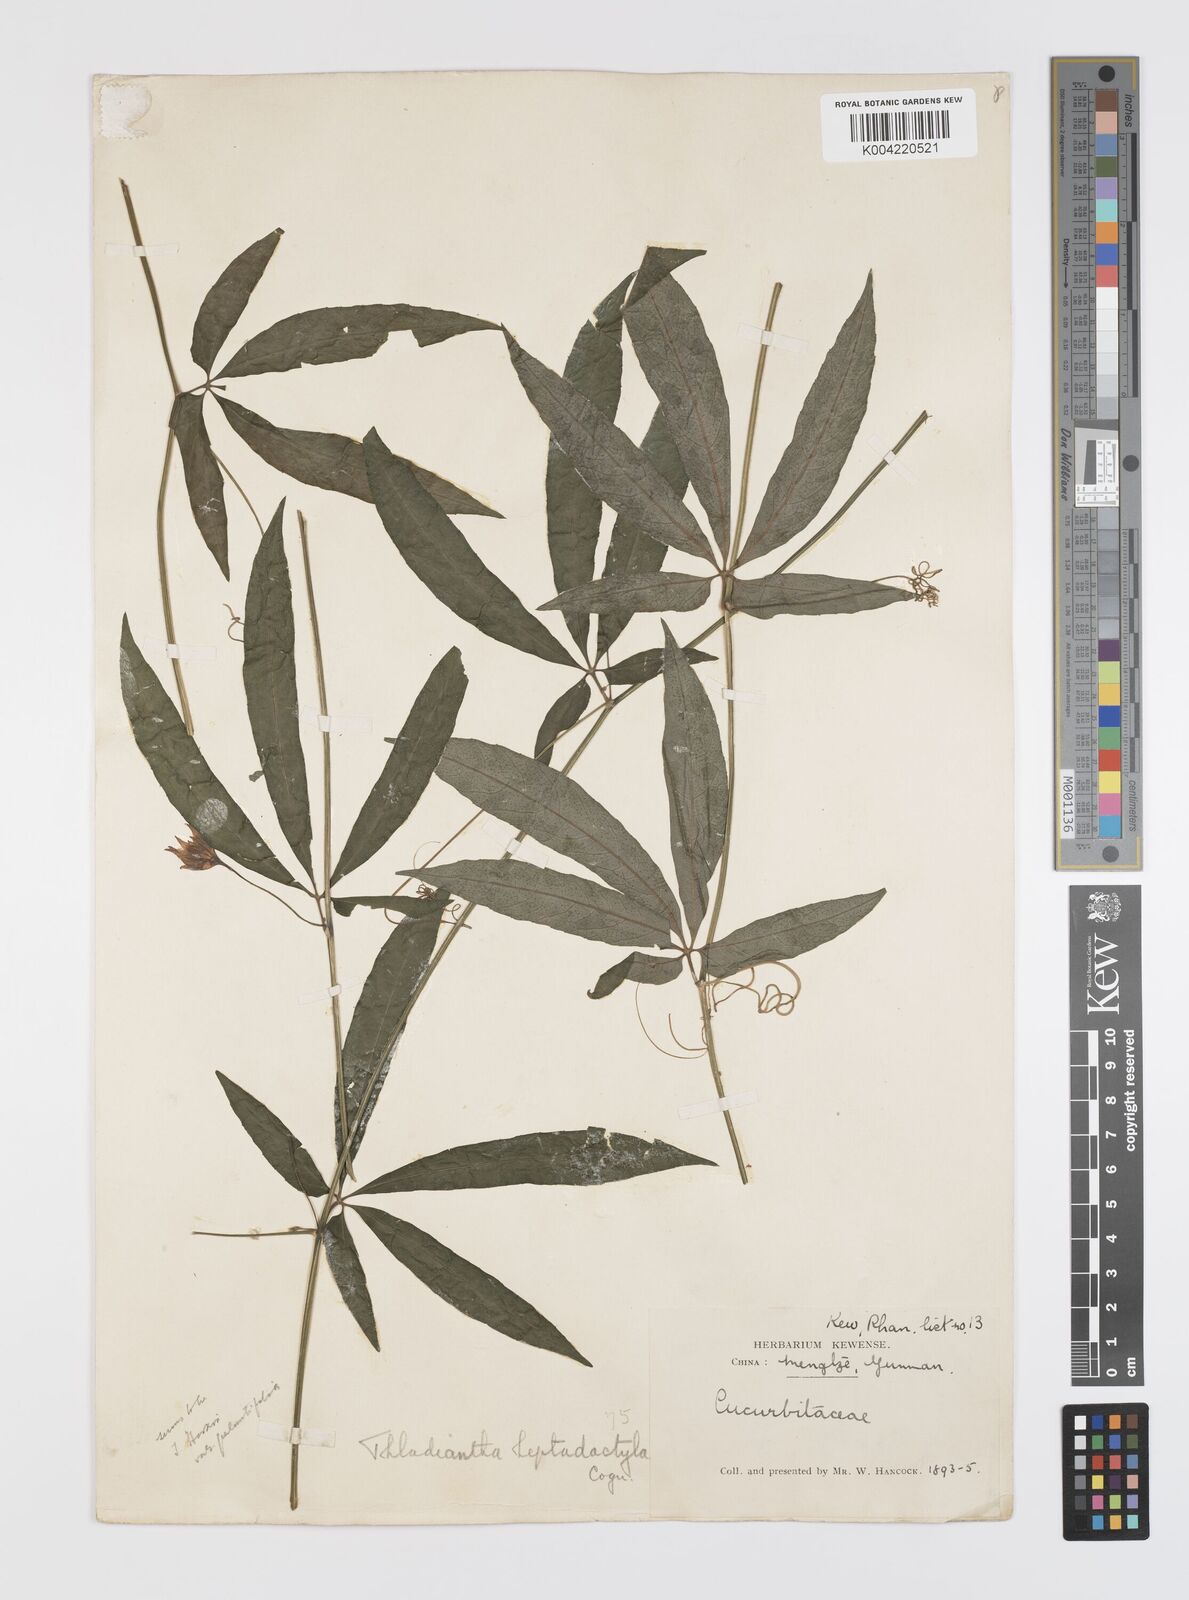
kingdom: Plantae
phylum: Tracheophyta
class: Magnoliopsida
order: Cucurbitales
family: Cucurbitaceae
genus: Thladiantha
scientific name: Thladiantha hookeri
